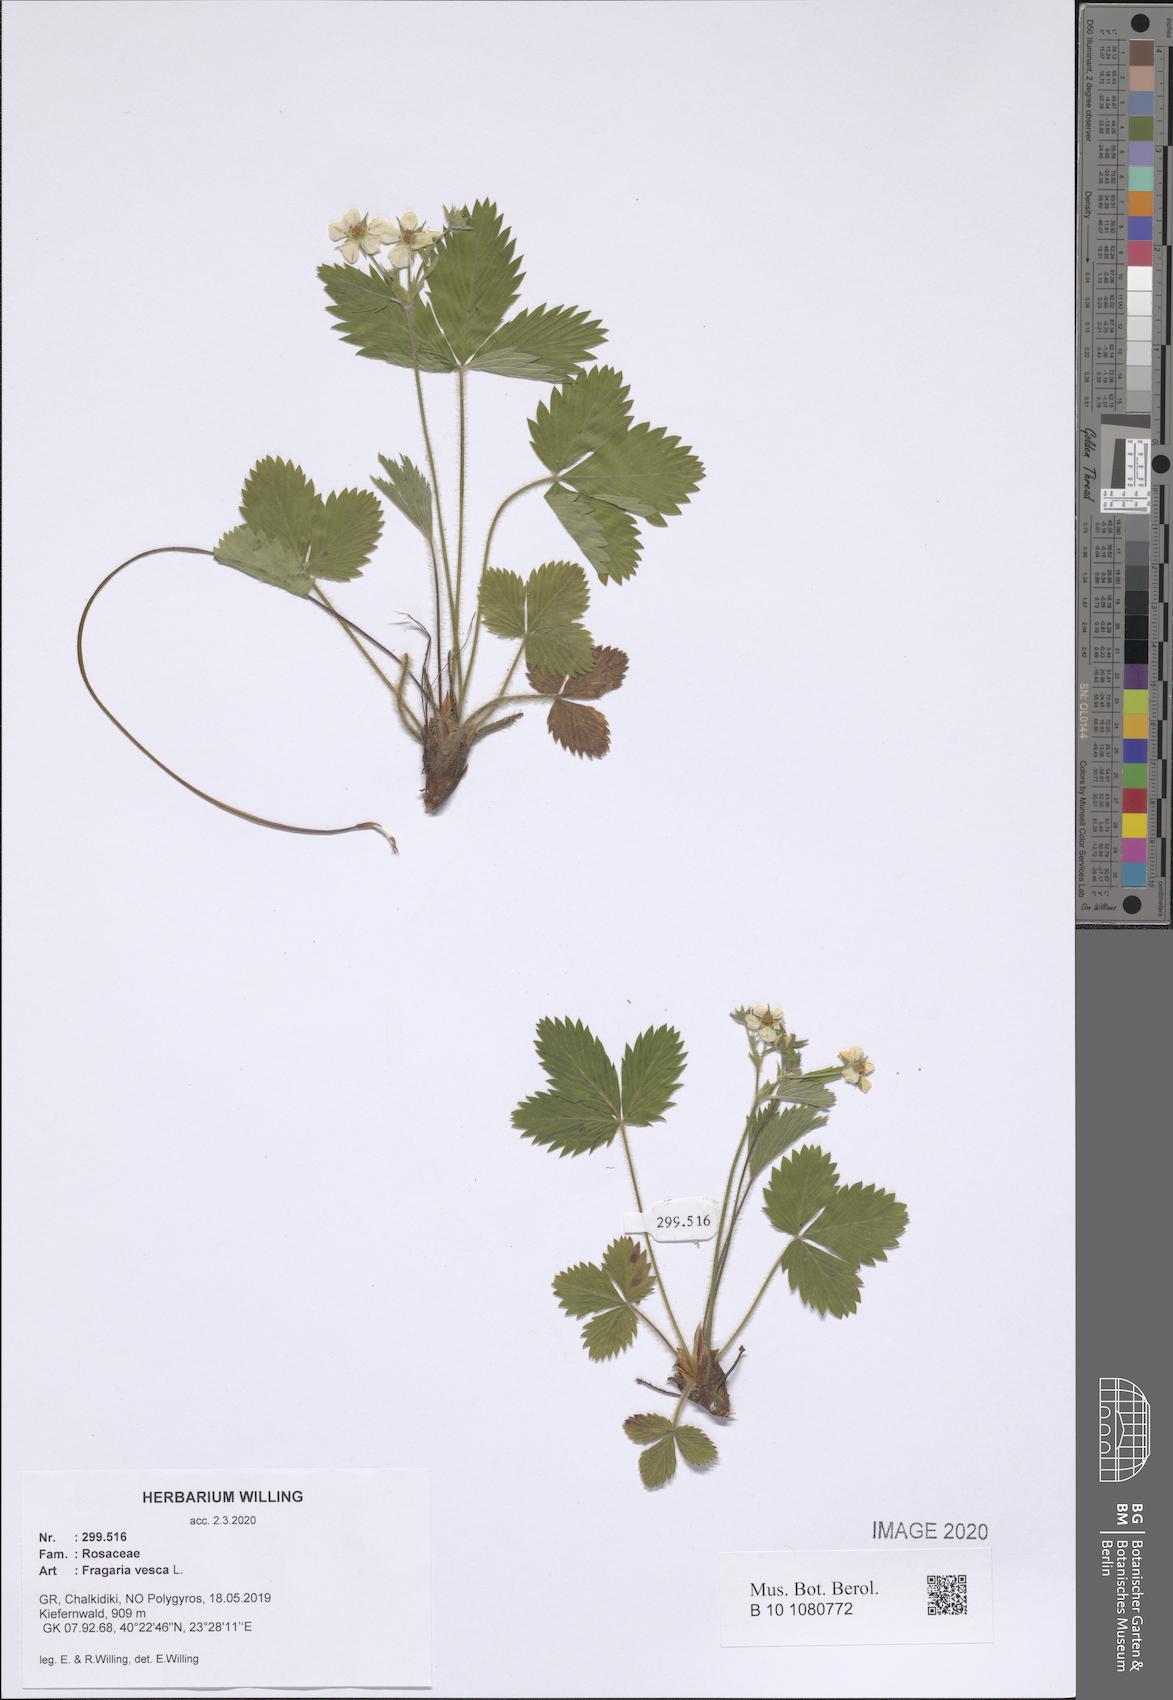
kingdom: Plantae
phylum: Tracheophyta
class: Magnoliopsida
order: Rosales
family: Rosaceae
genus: Fragaria
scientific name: Fragaria vesca
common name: Wild strawberry
